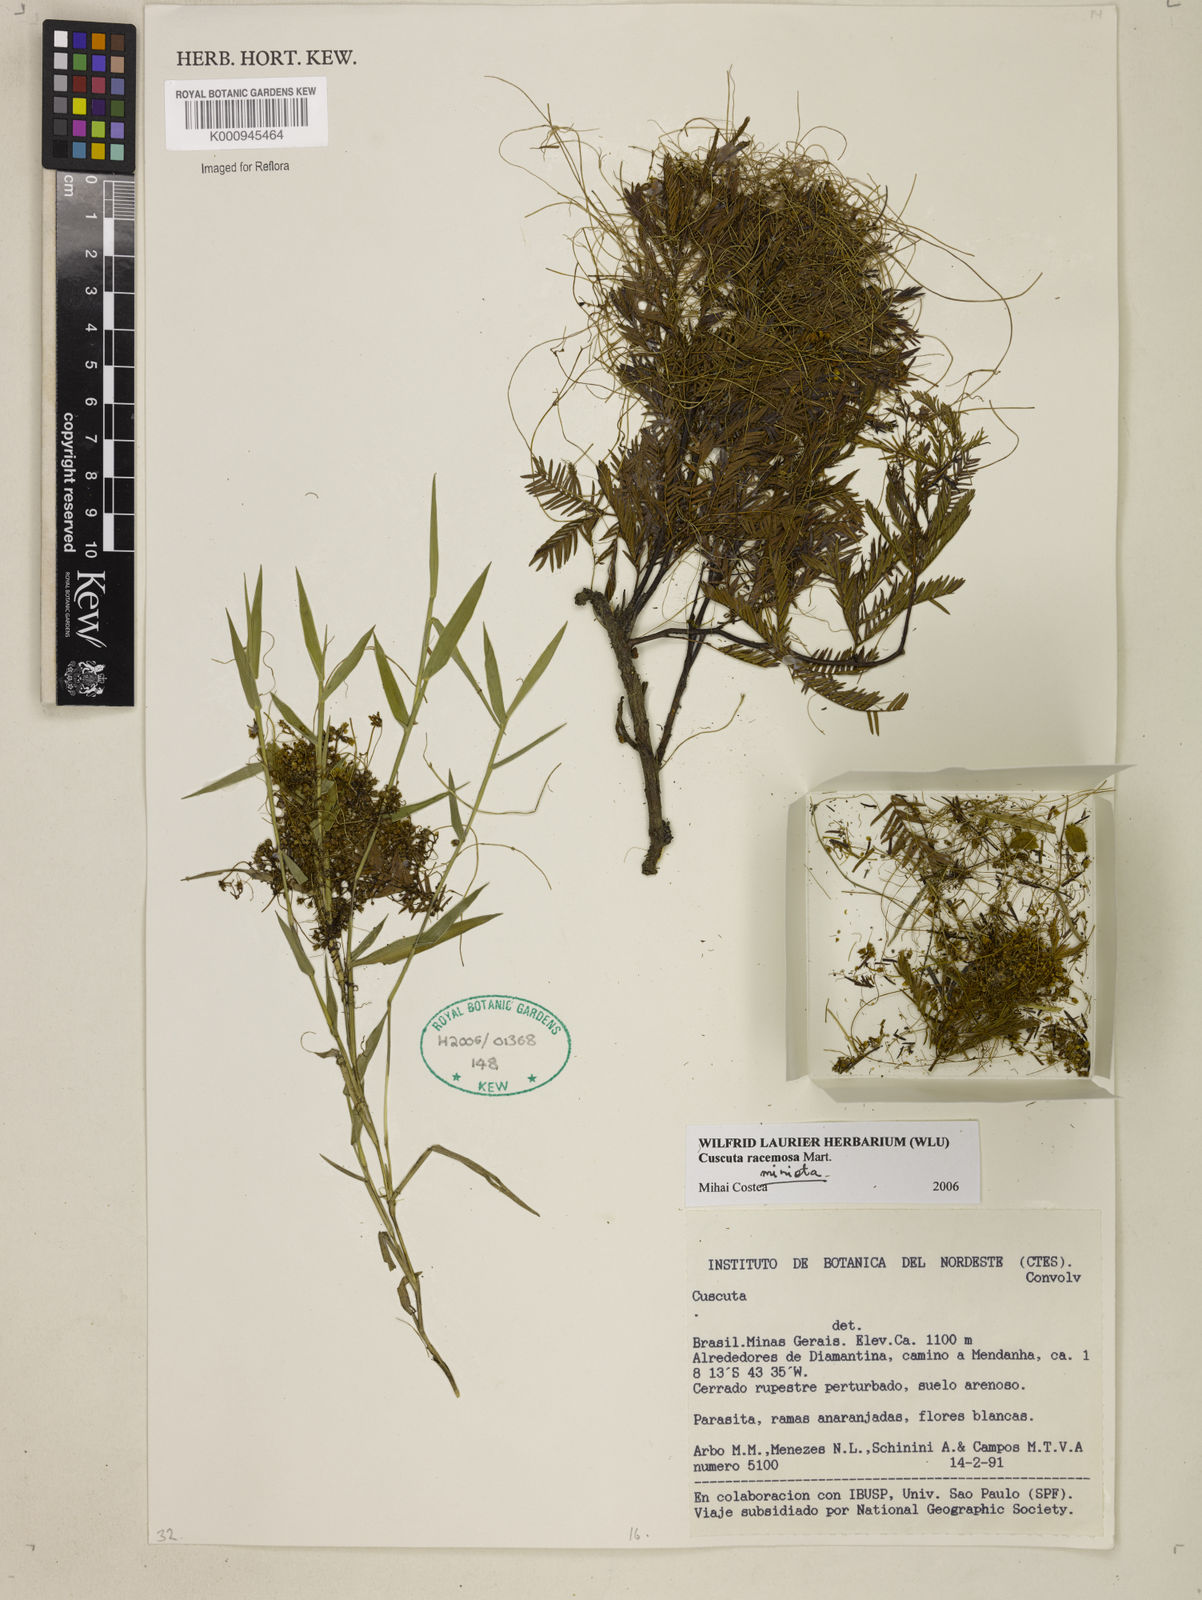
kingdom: Plantae
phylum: Tracheophyta
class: Magnoliopsida
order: Solanales
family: Convolvulaceae
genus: Cuscuta
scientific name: Cuscuta racemosa
